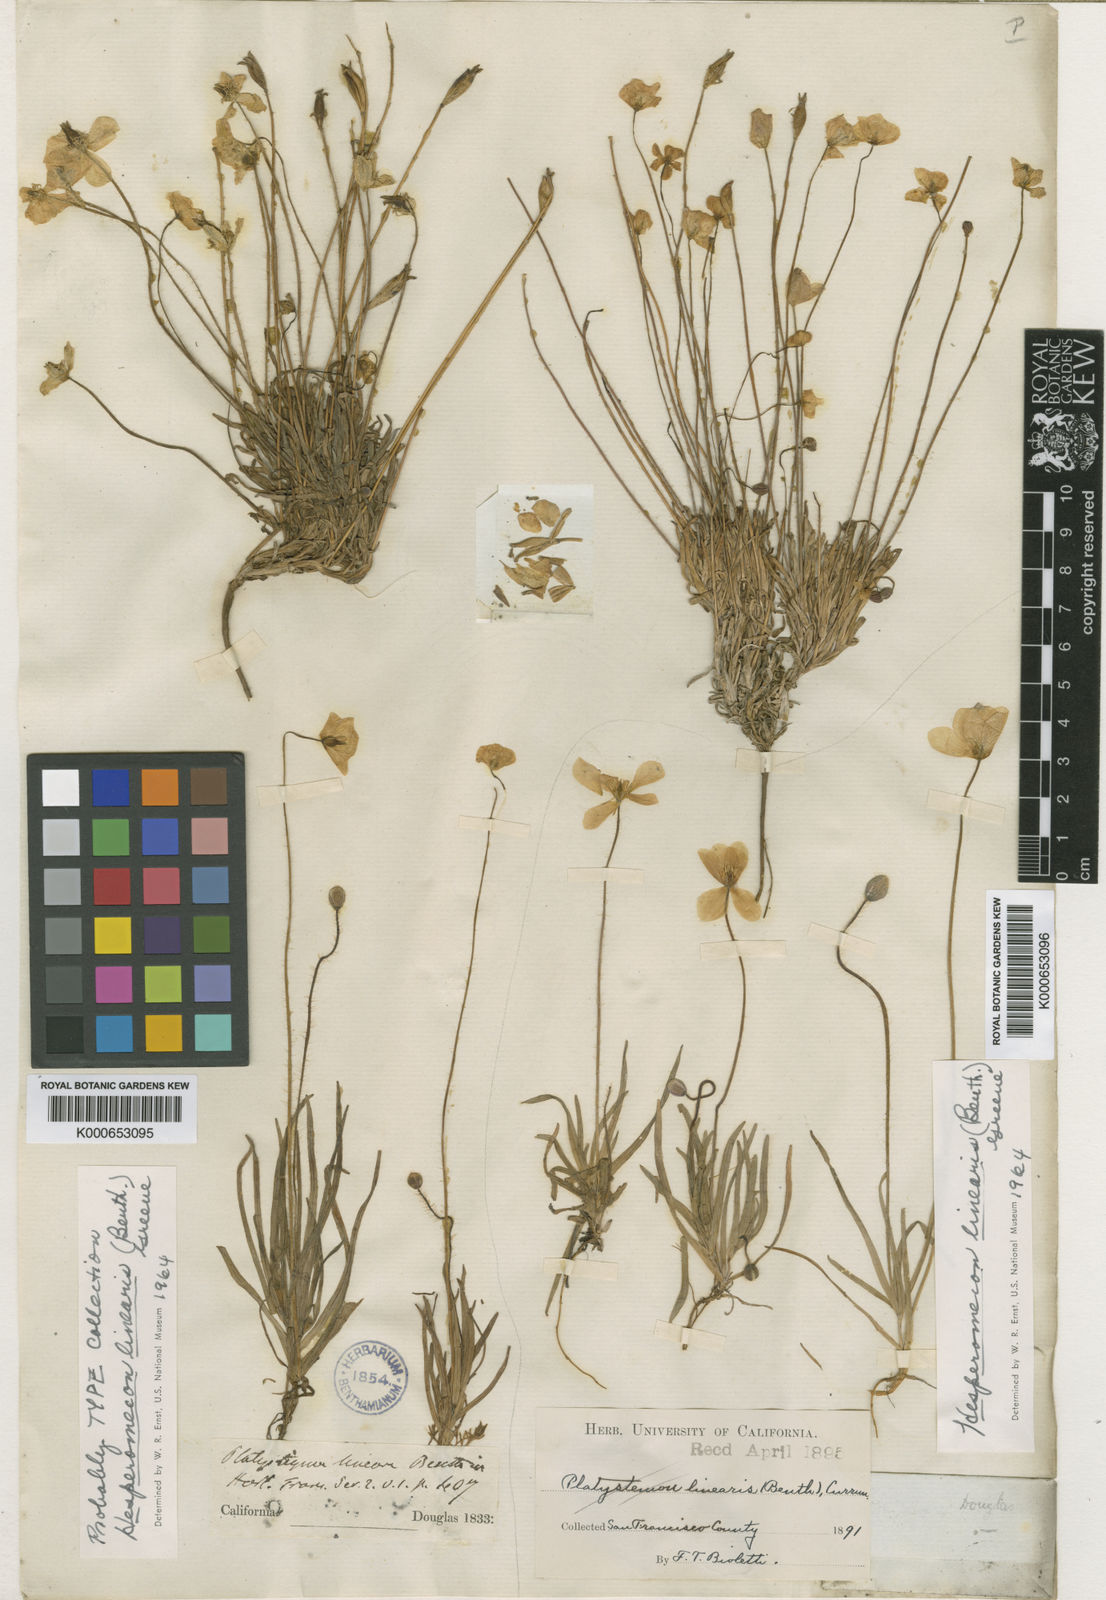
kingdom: Plantae
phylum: Tracheophyta
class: Magnoliopsida
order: Ranunculales
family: Papaveraceae
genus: Platystigma
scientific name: Platystigma lineare
